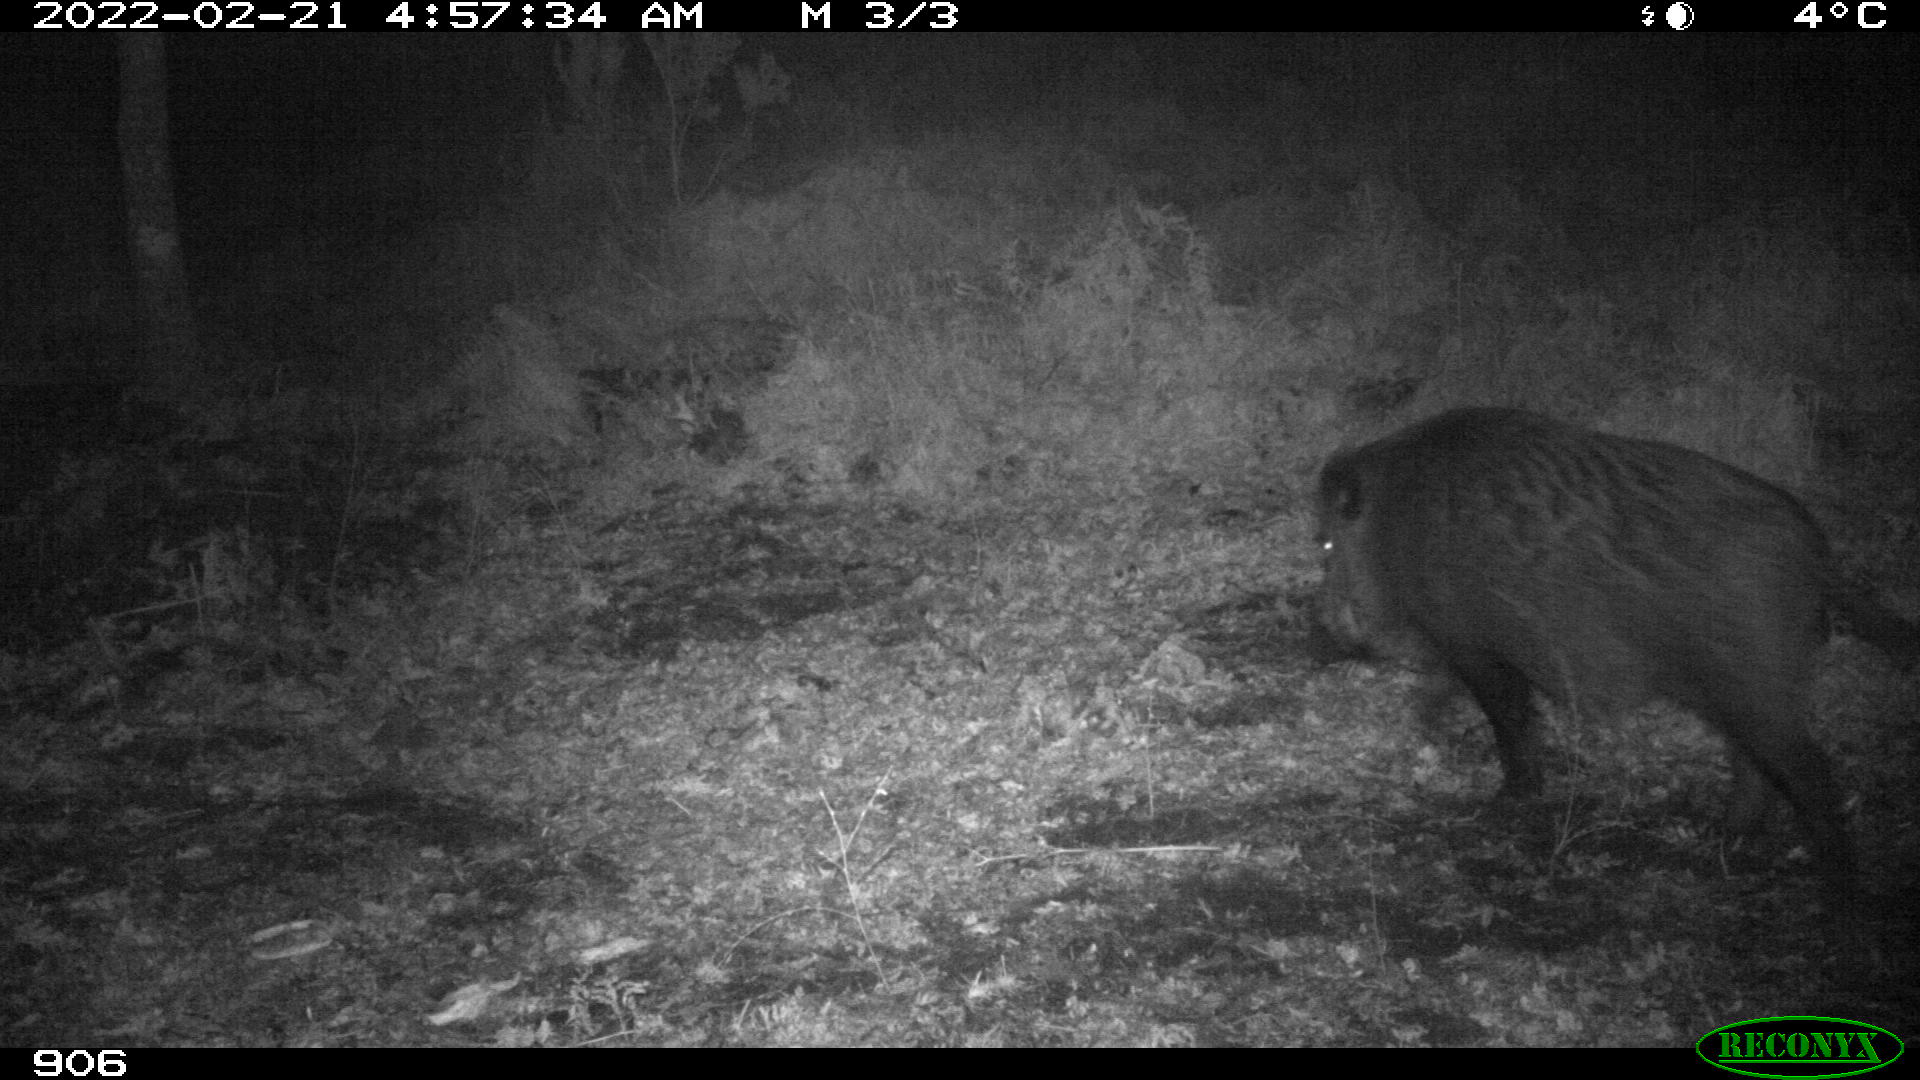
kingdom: Animalia
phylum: Chordata
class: Mammalia
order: Artiodactyla
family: Suidae
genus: Sus
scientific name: Sus scrofa
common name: Wild boar
